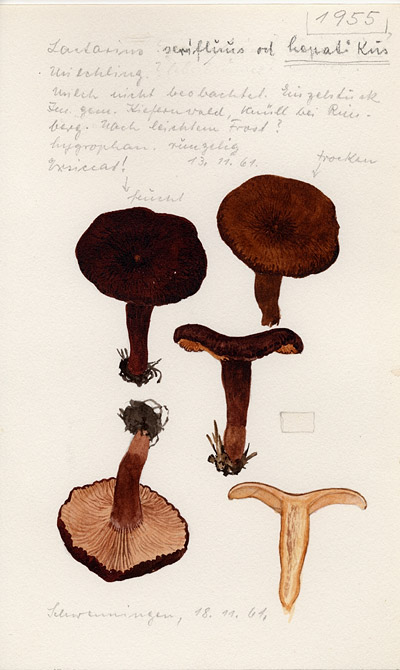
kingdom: Fungi
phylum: Basidiomycota
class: Agaricomycetes
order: Russulales
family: Russulaceae
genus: Lactarius
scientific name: Lactarius hepaticus
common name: Liver milkcap
